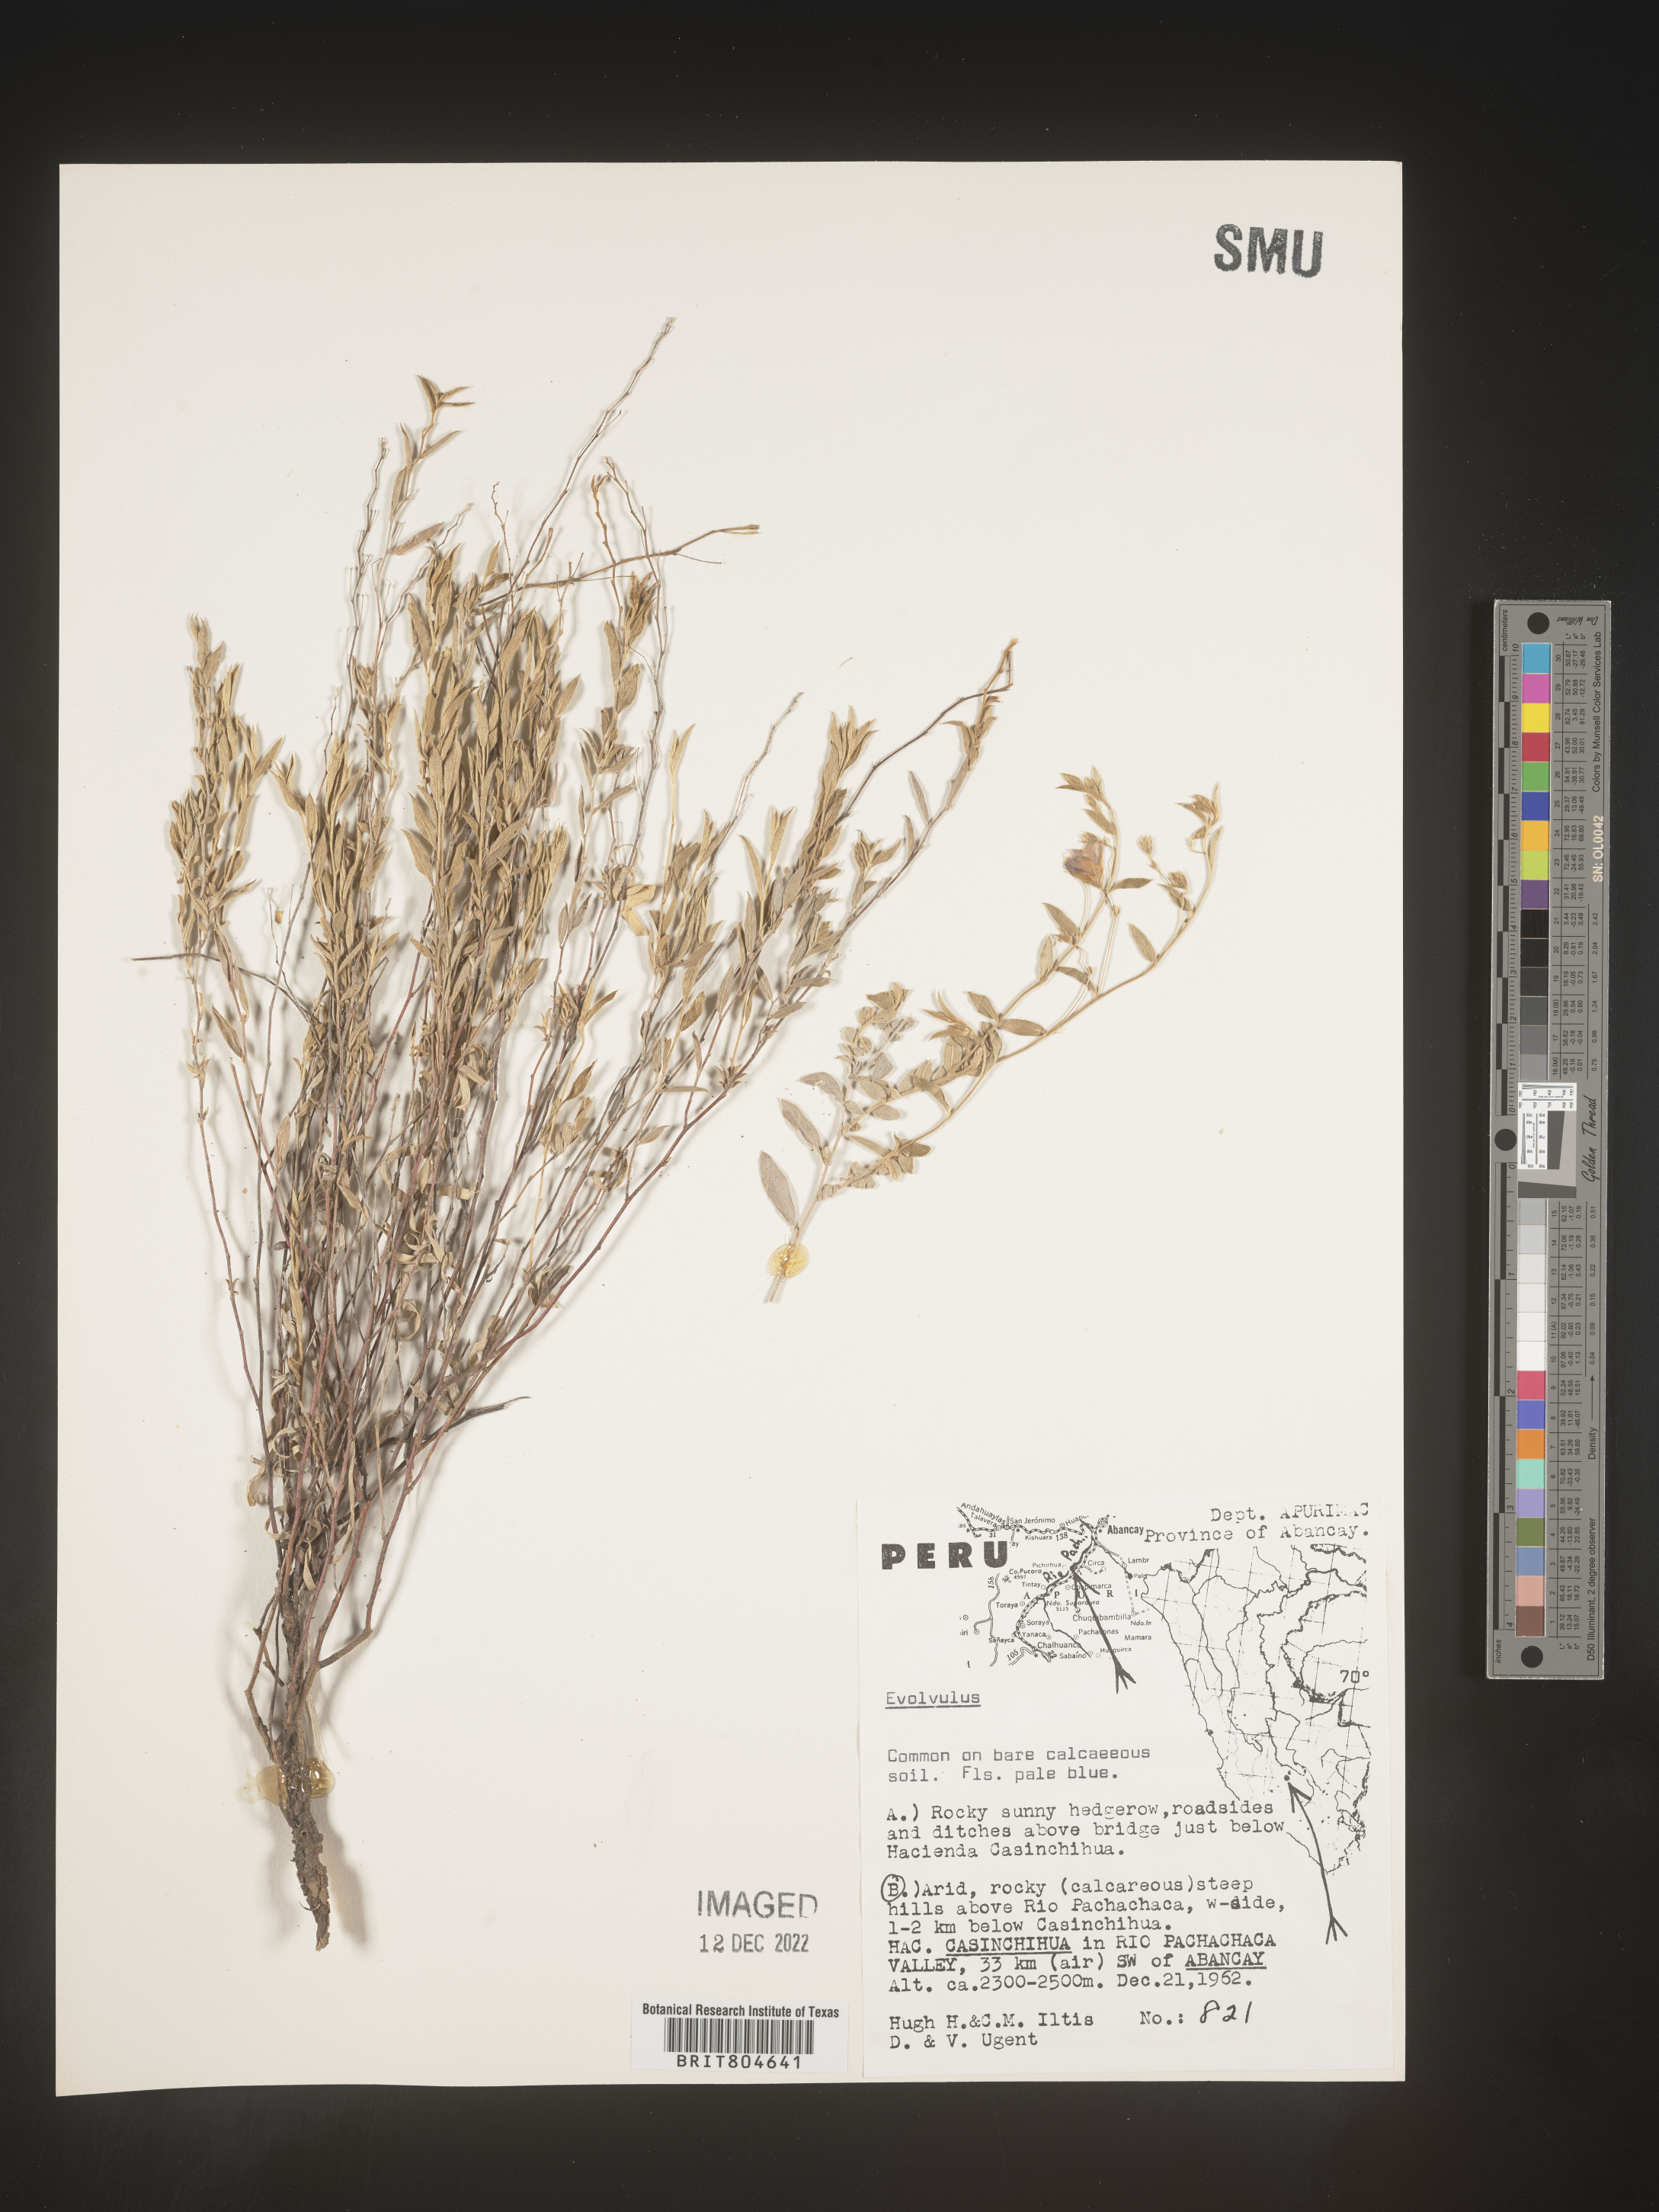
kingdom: Plantae
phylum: Tracheophyta
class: Magnoliopsida
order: Solanales
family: Convolvulaceae
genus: Evolvulus
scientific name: Evolvulus
